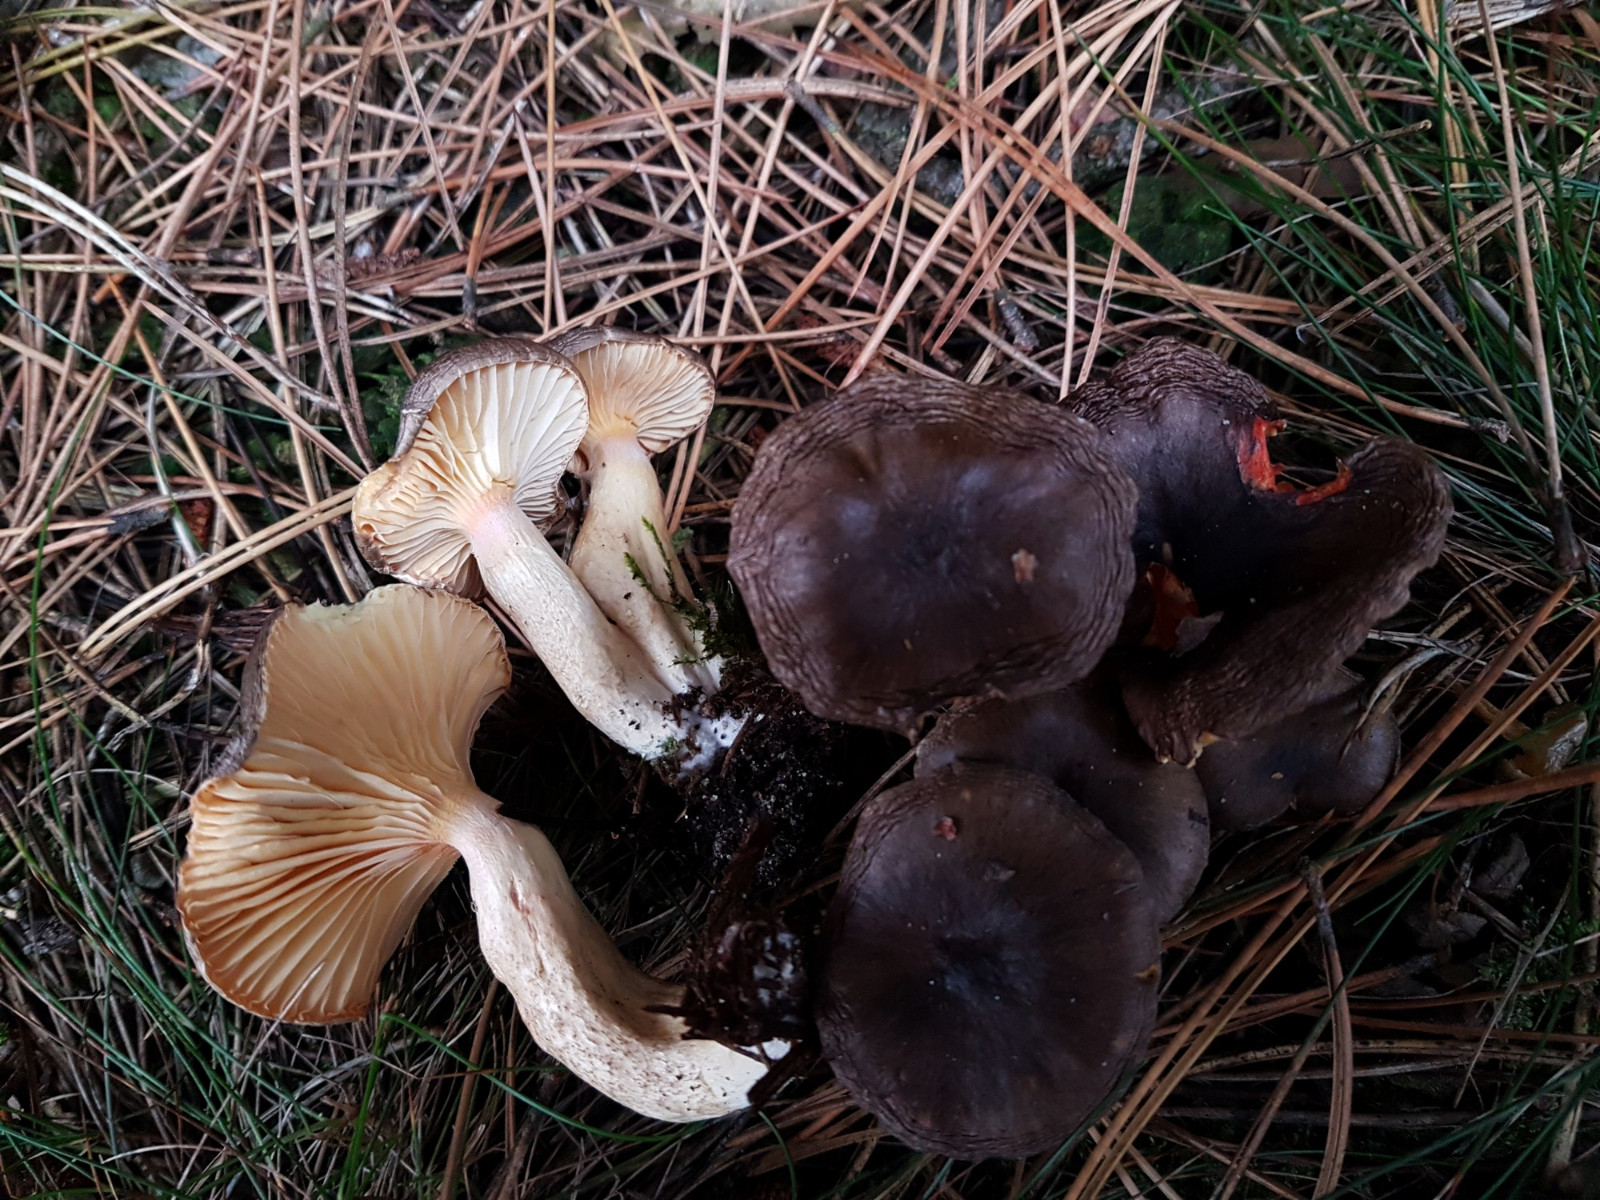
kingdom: Fungi
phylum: Basidiomycota
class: Agaricomycetes
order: Agaricales
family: Hygrophoraceae
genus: Hygrophorus
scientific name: Hygrophorus hypothejus
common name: frost-sneglehat
